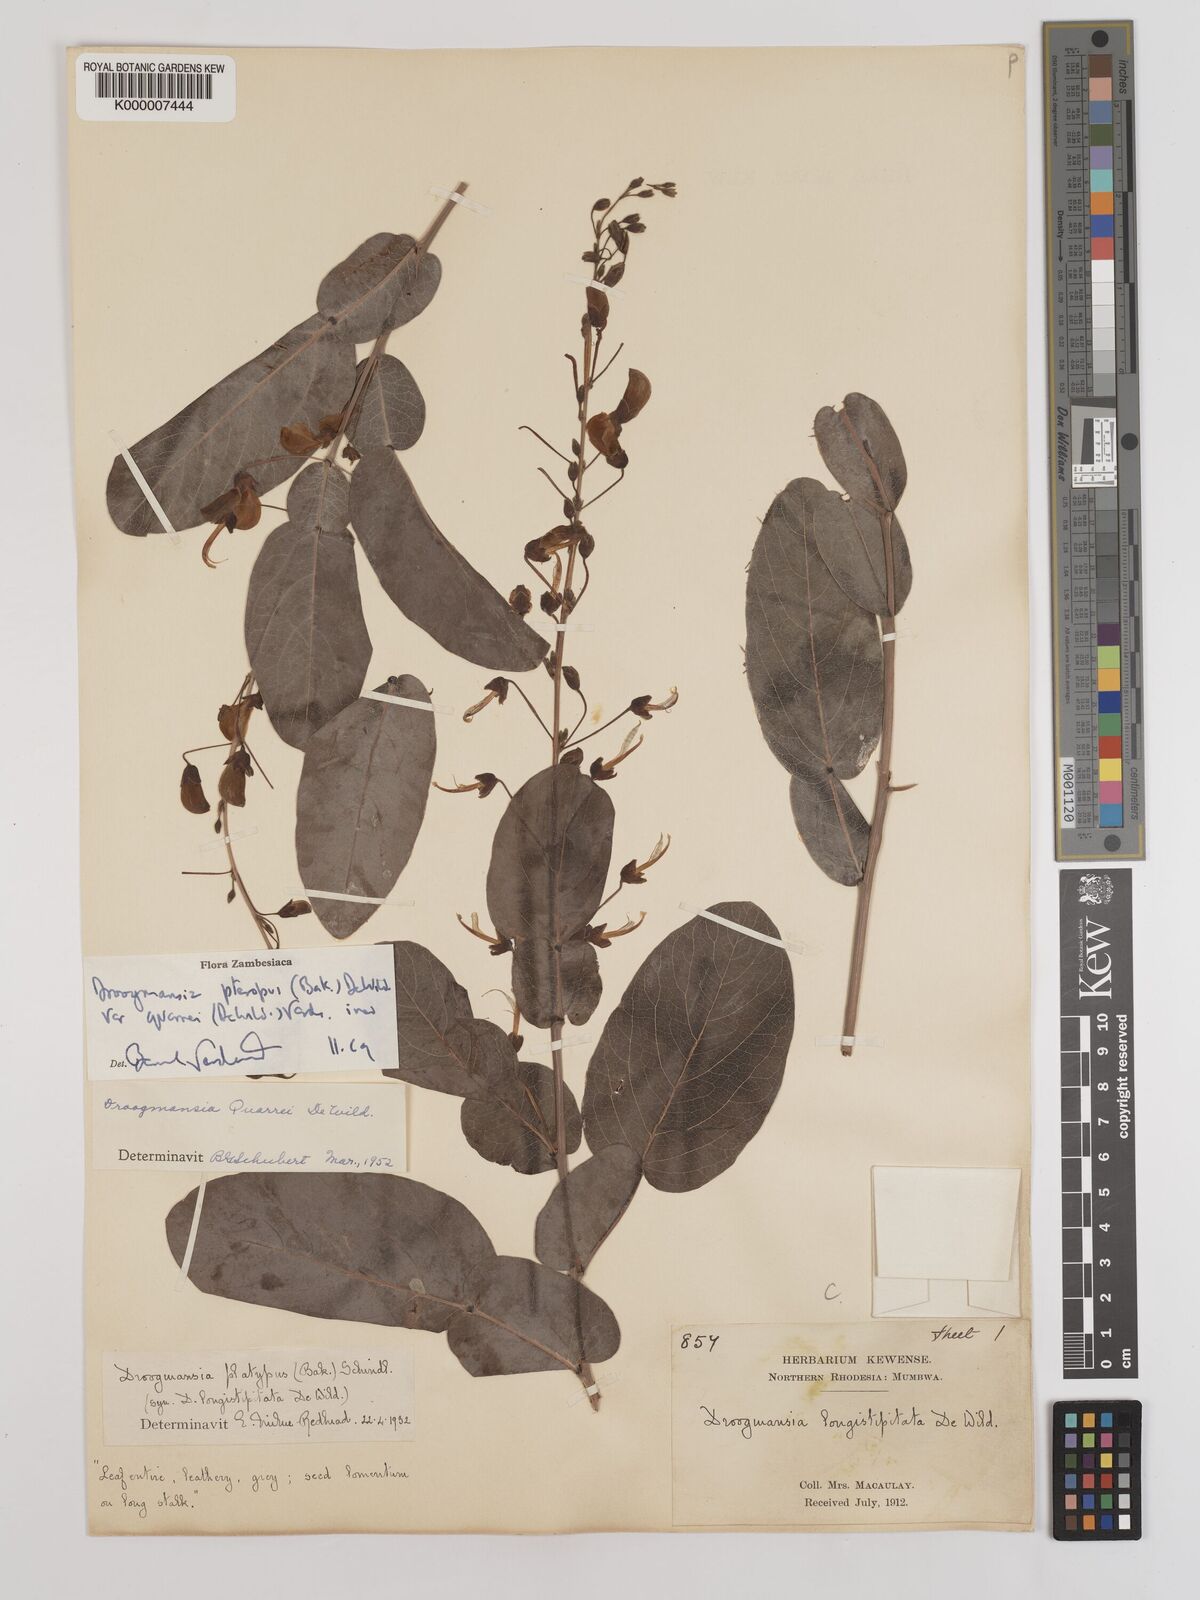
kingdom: Plantae
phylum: Tracheophyta
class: Magnoliopsida
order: Fabales
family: Fabaceae
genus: Droogmansia
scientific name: Droogmansia pteropus
